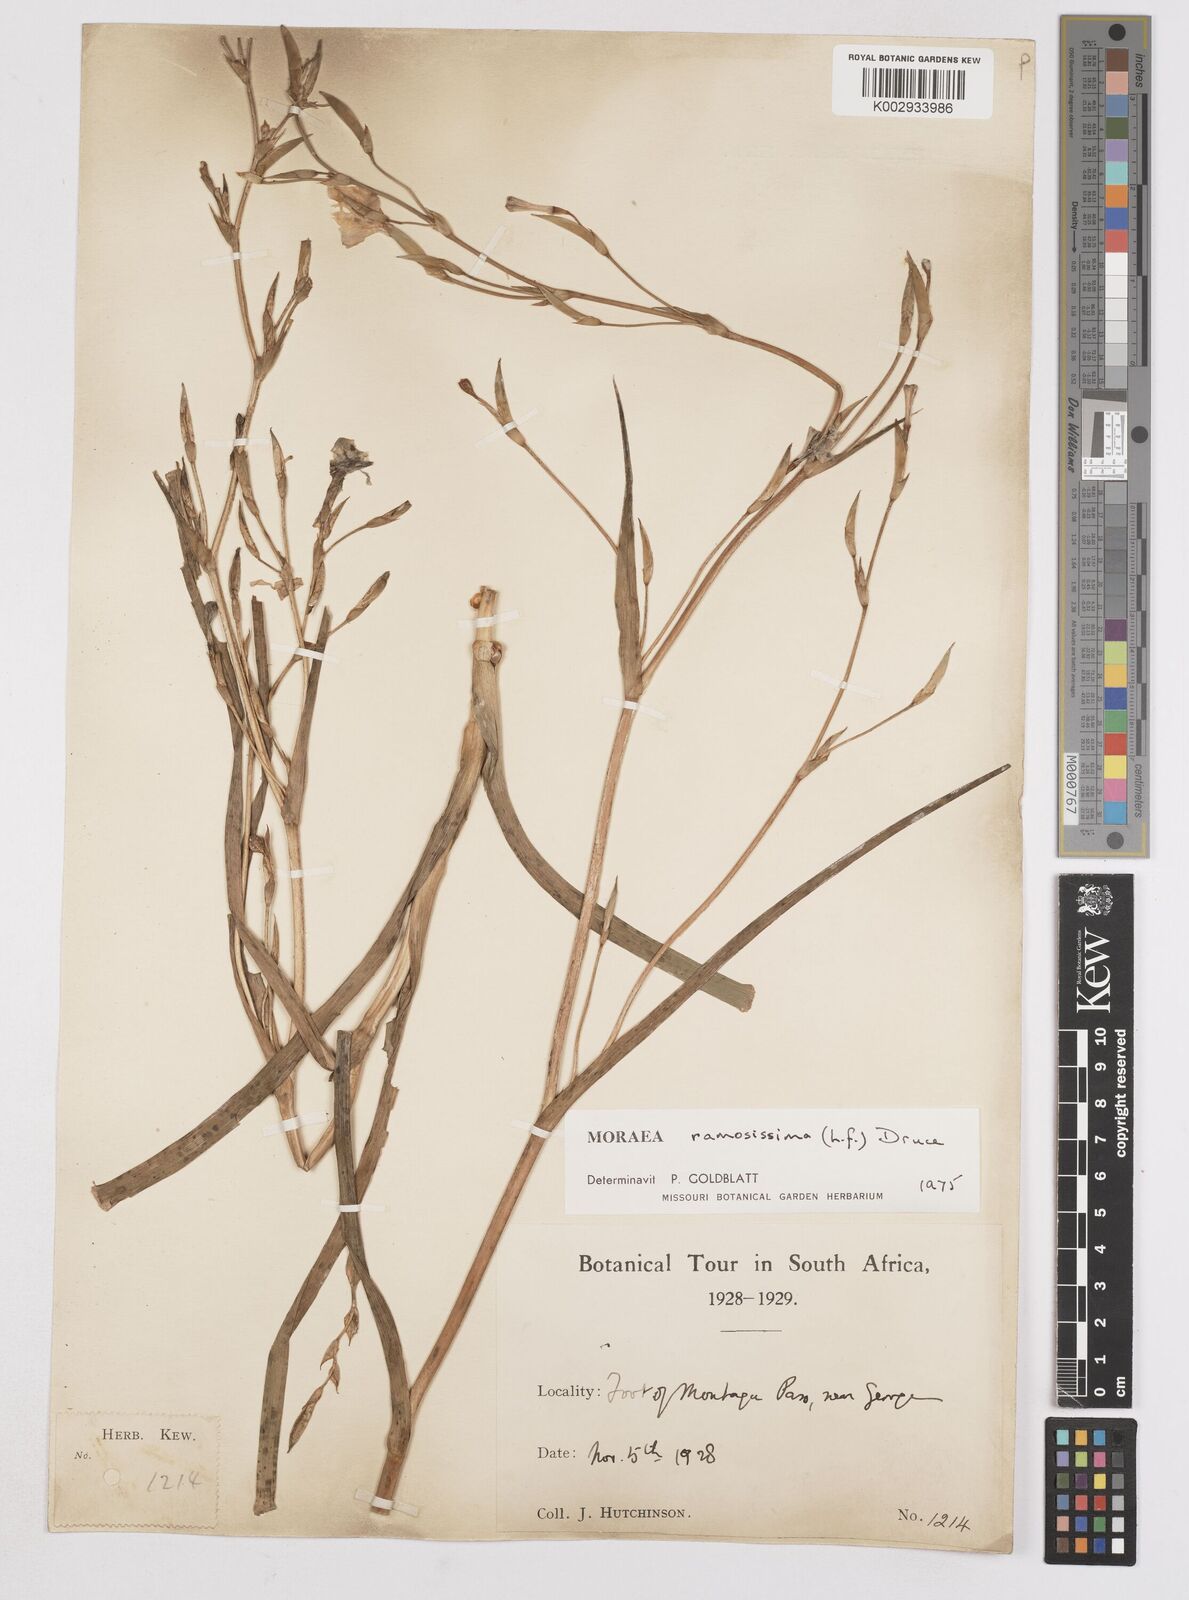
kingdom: Plantae
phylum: Tracheophyta
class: Liliopsida
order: Asparagales
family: Iridaceae
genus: Moraea
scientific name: Moraea ramosissima
